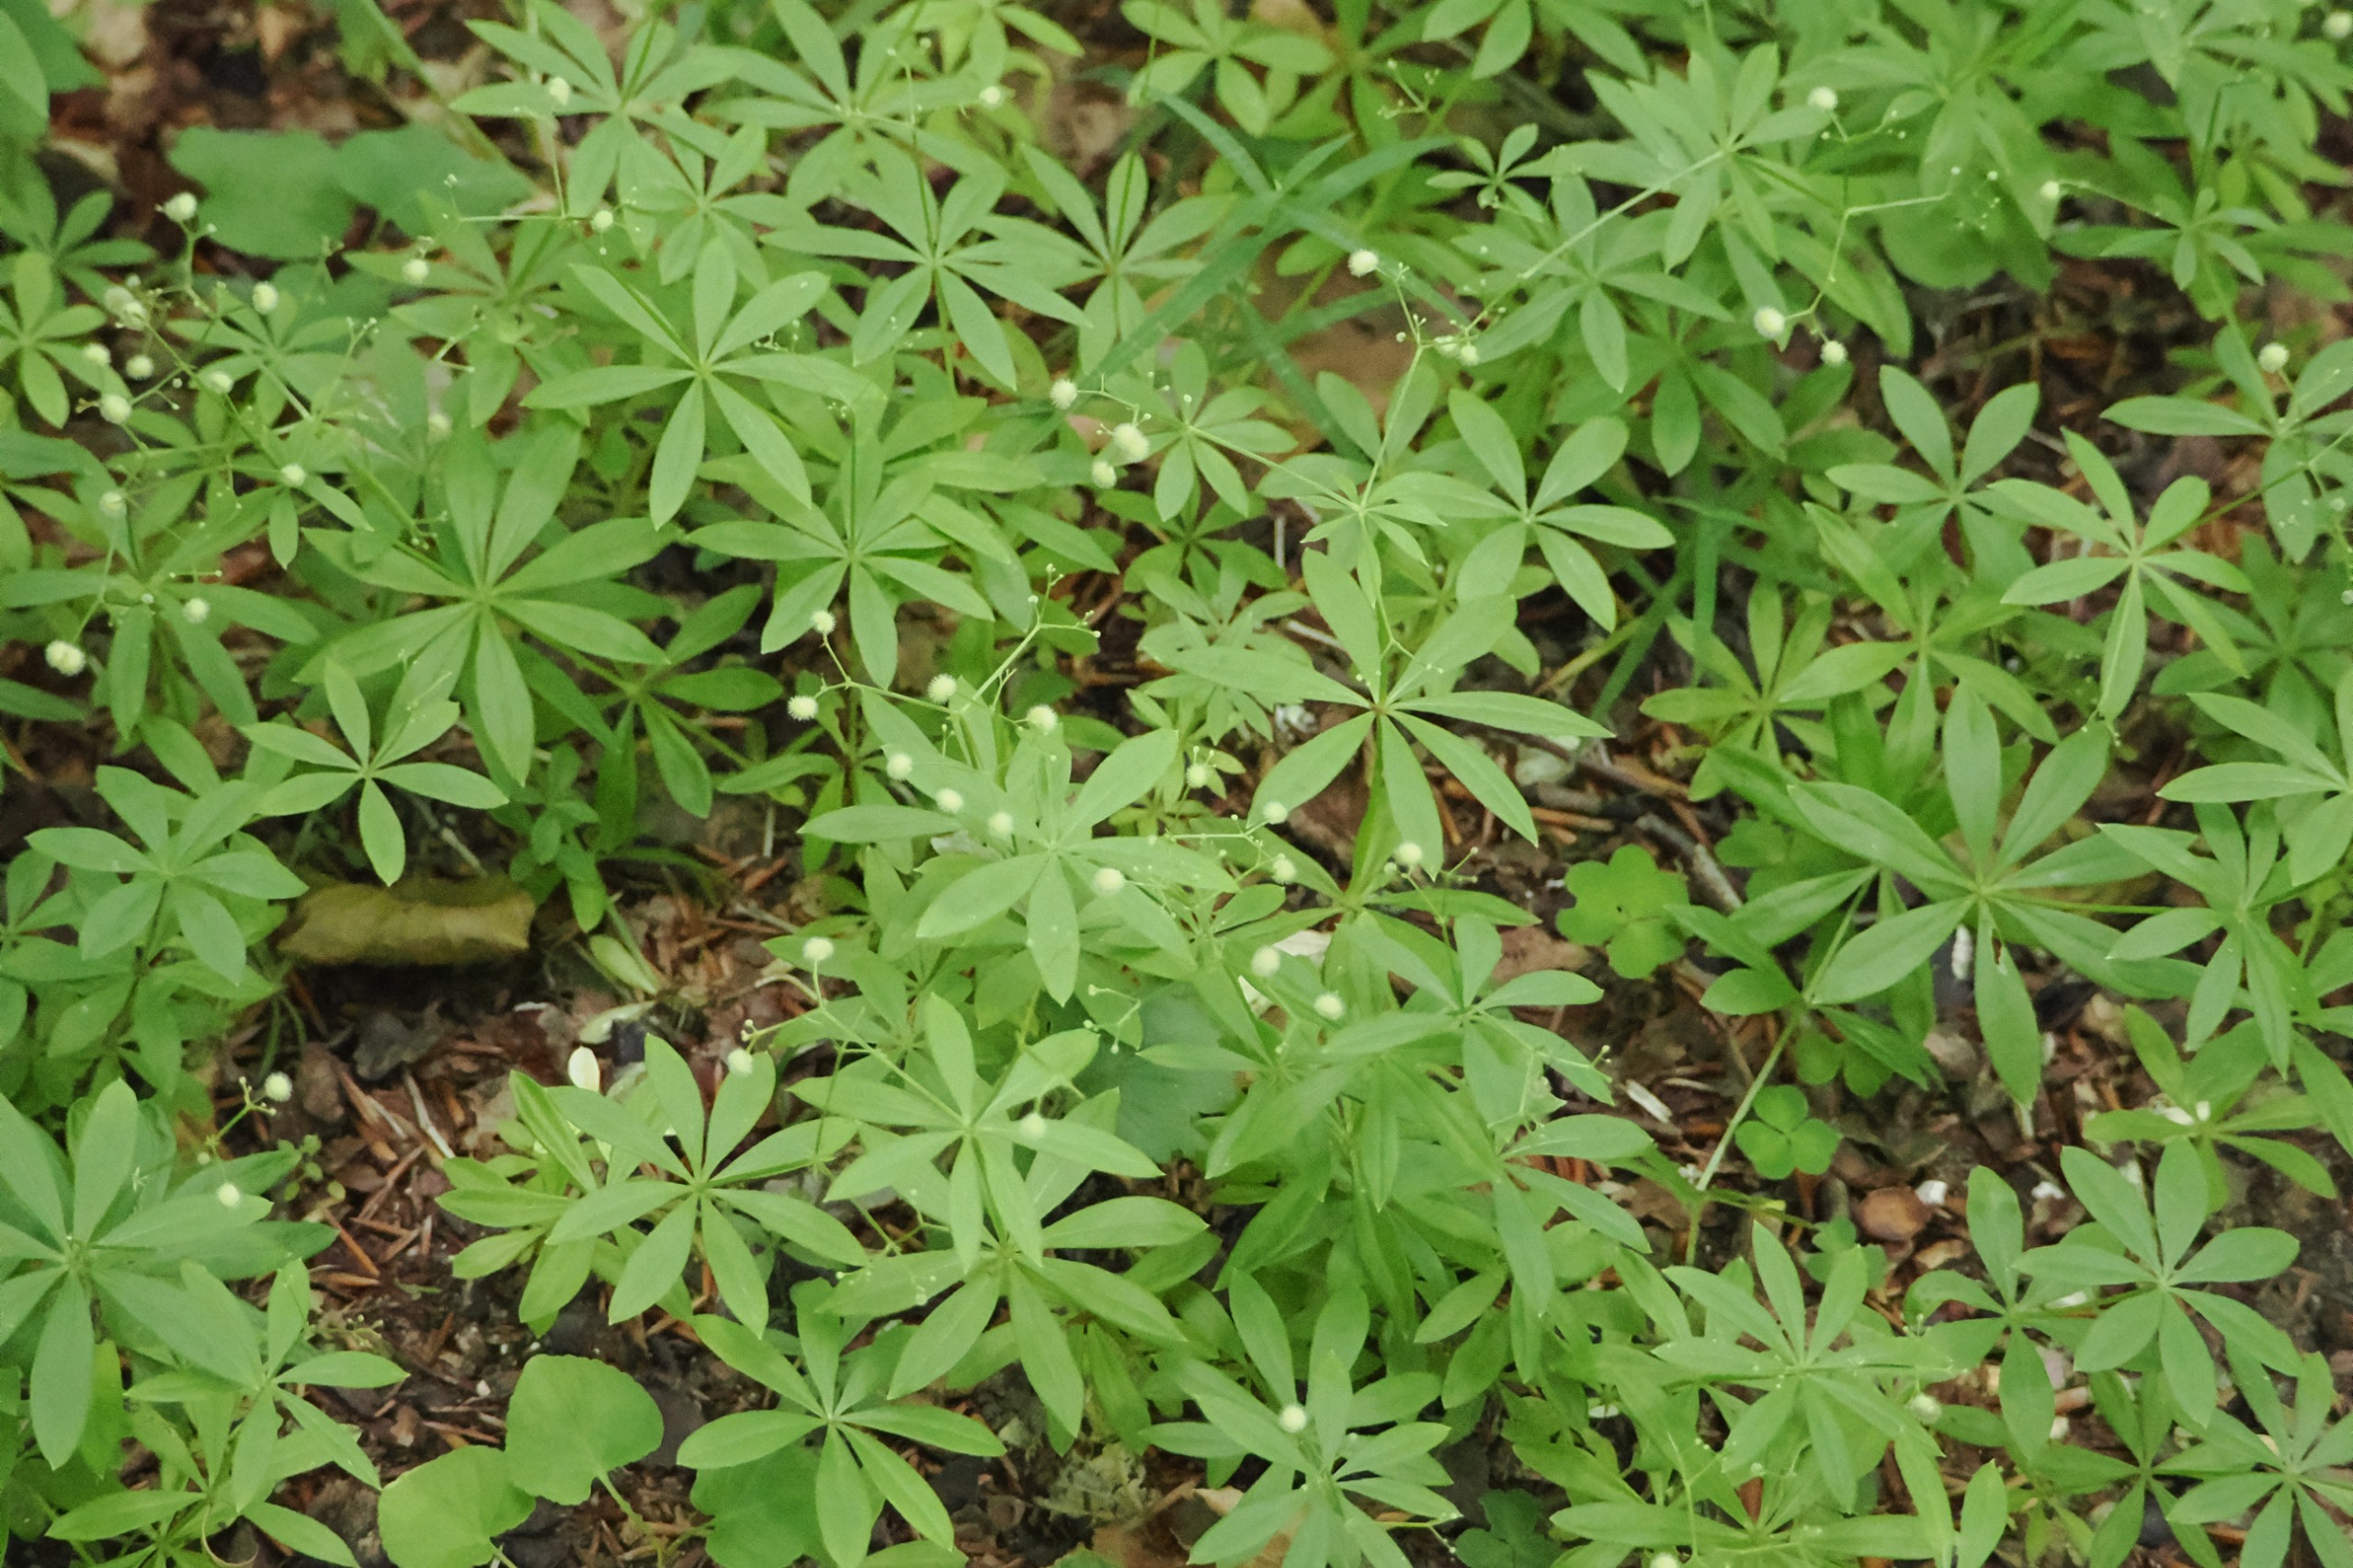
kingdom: Plantae
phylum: Tracheophyta
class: Magnoliopsida
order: Gentianales
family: Rubiaceae
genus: Galium
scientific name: Galium odoratum
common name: Skovmærke
